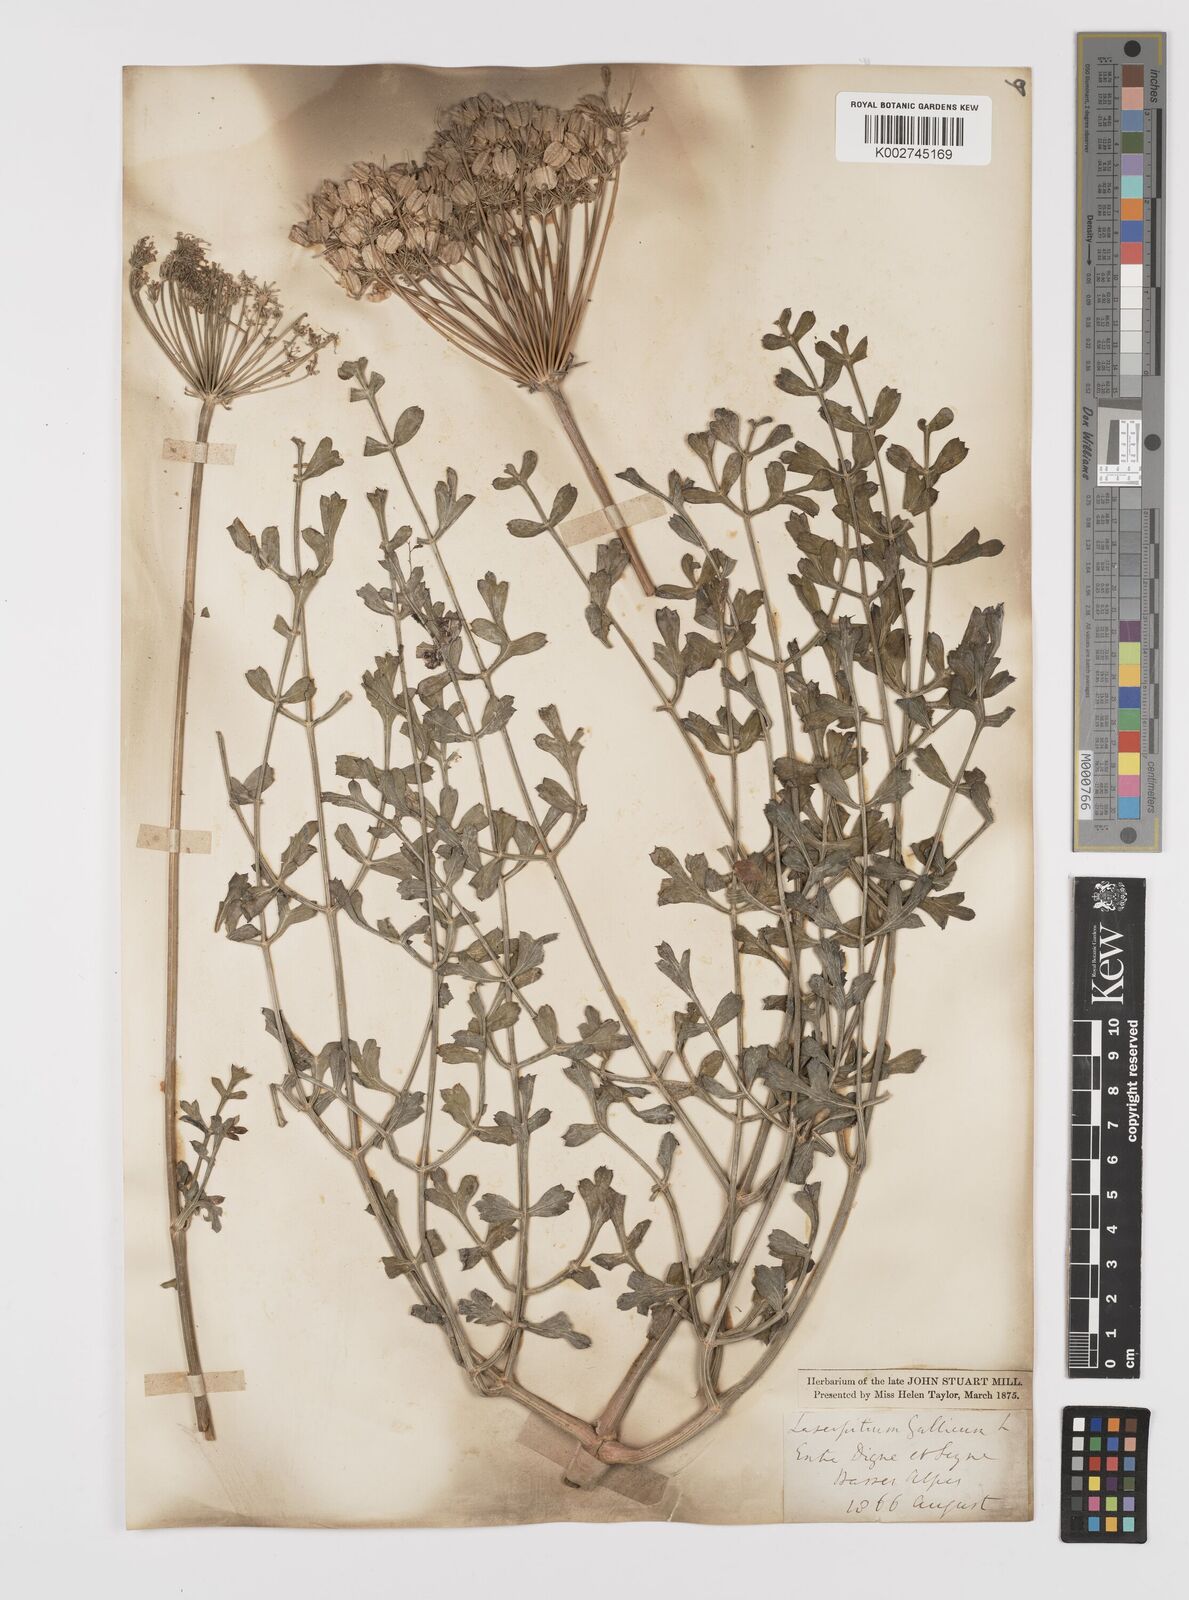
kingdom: Plantae
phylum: Tracheophyta
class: Magnoliopsida
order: Apiales
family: Apiaceae
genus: Laserpitium
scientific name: Laserpitium gallicum
